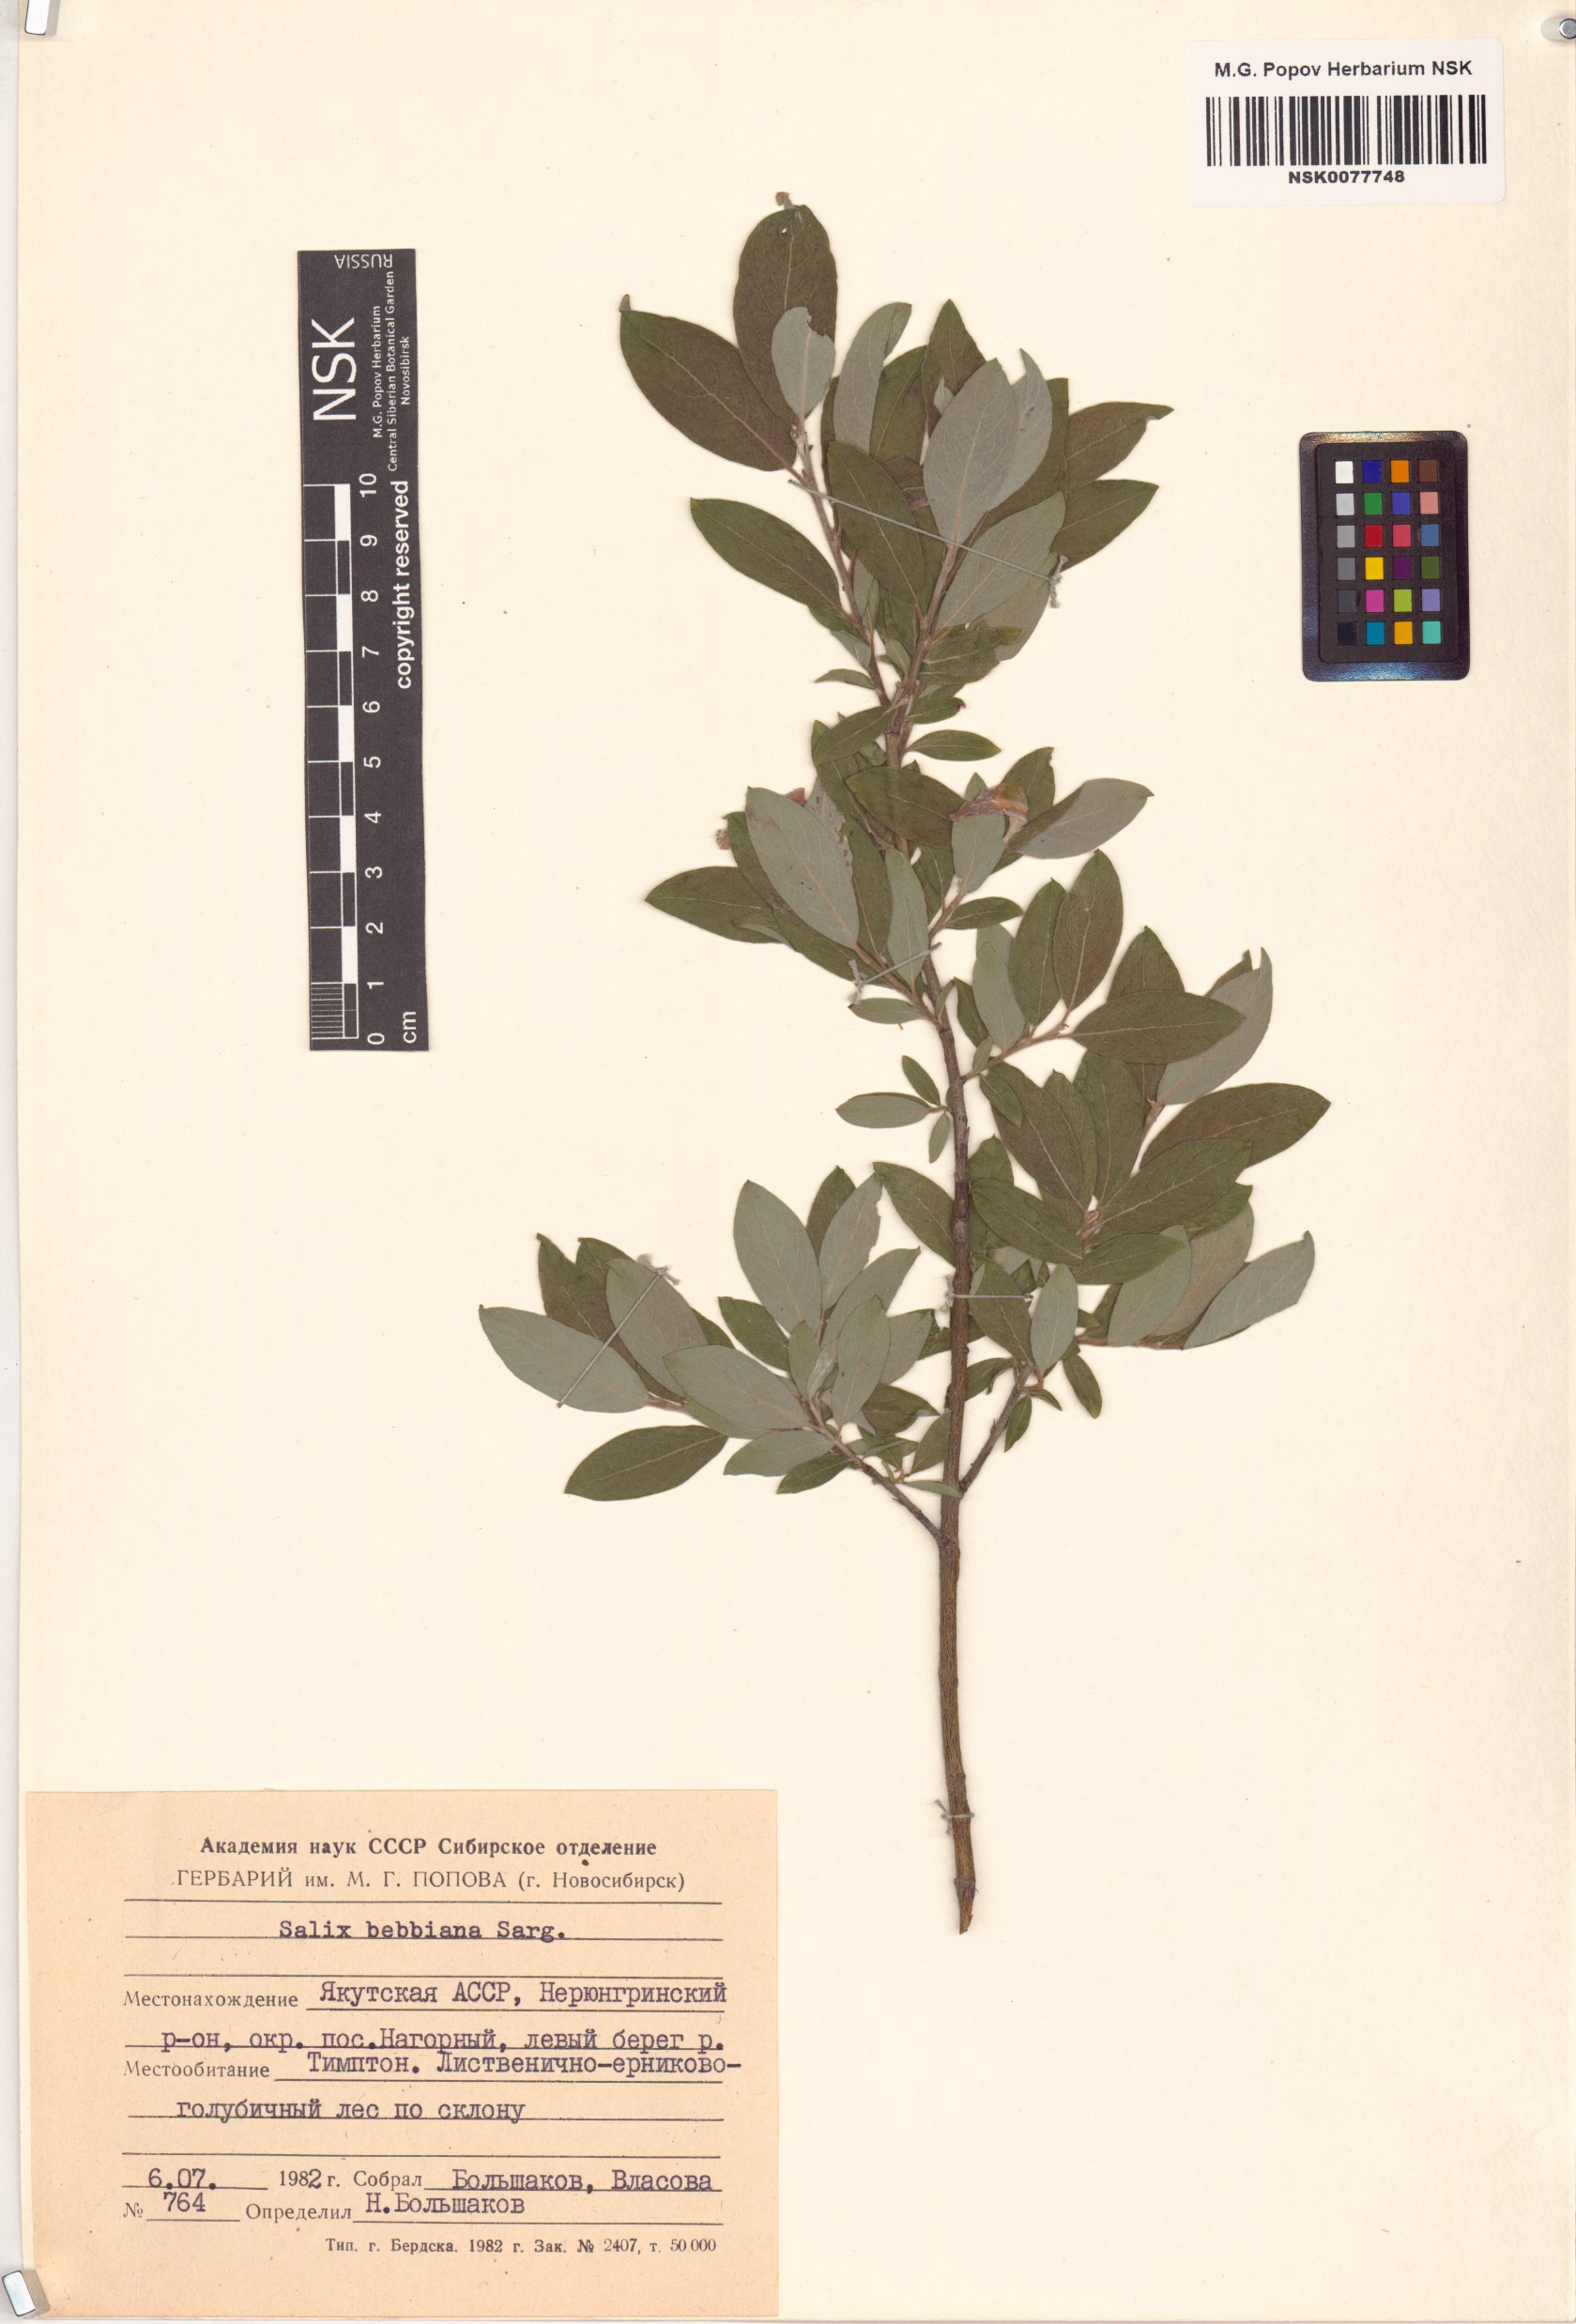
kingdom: Plantae
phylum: Tracheophyta
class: Magnoliopsida
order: Malpighiales
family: Salicaceae
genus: Salix
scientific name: Salix bebbiana
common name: Bebb's willow
